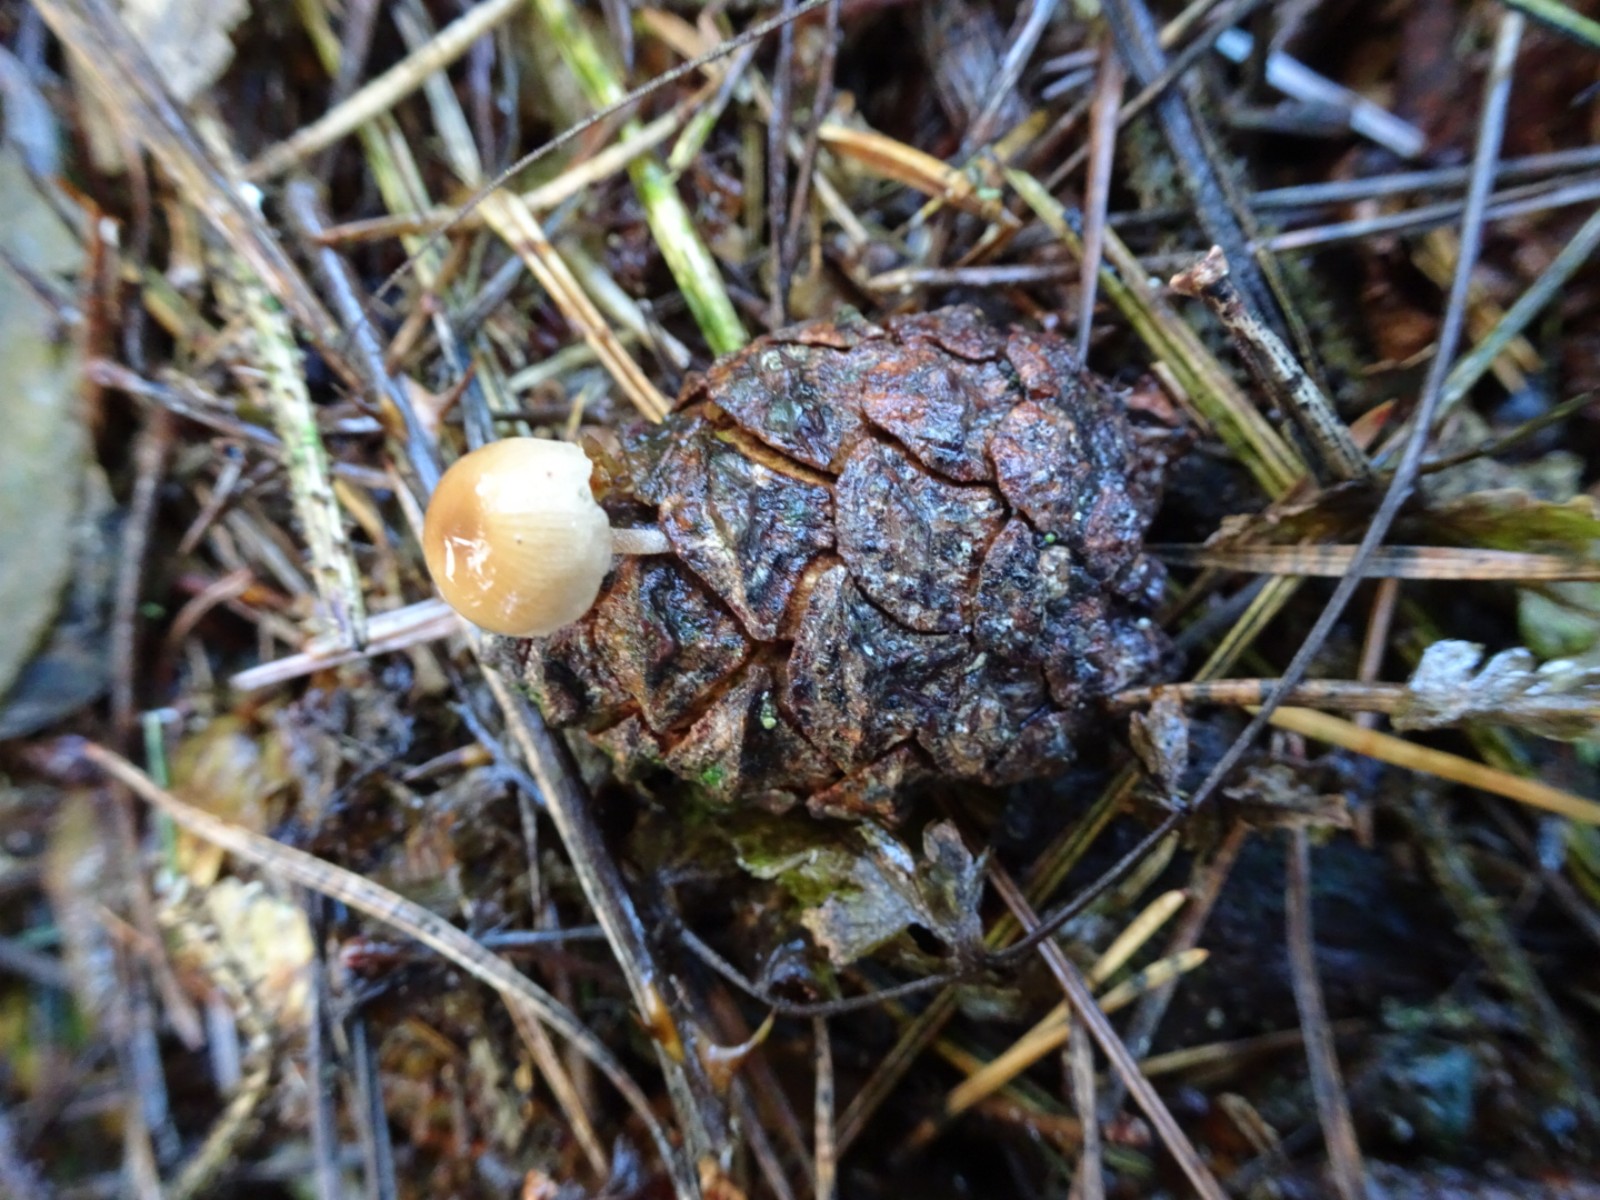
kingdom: Fungi
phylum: Basidiomycota
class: Agaricomycetes
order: Agaricales
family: Marasmiaceae
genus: Baeospora
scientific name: Baeospora myosura
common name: koglebruskhat
